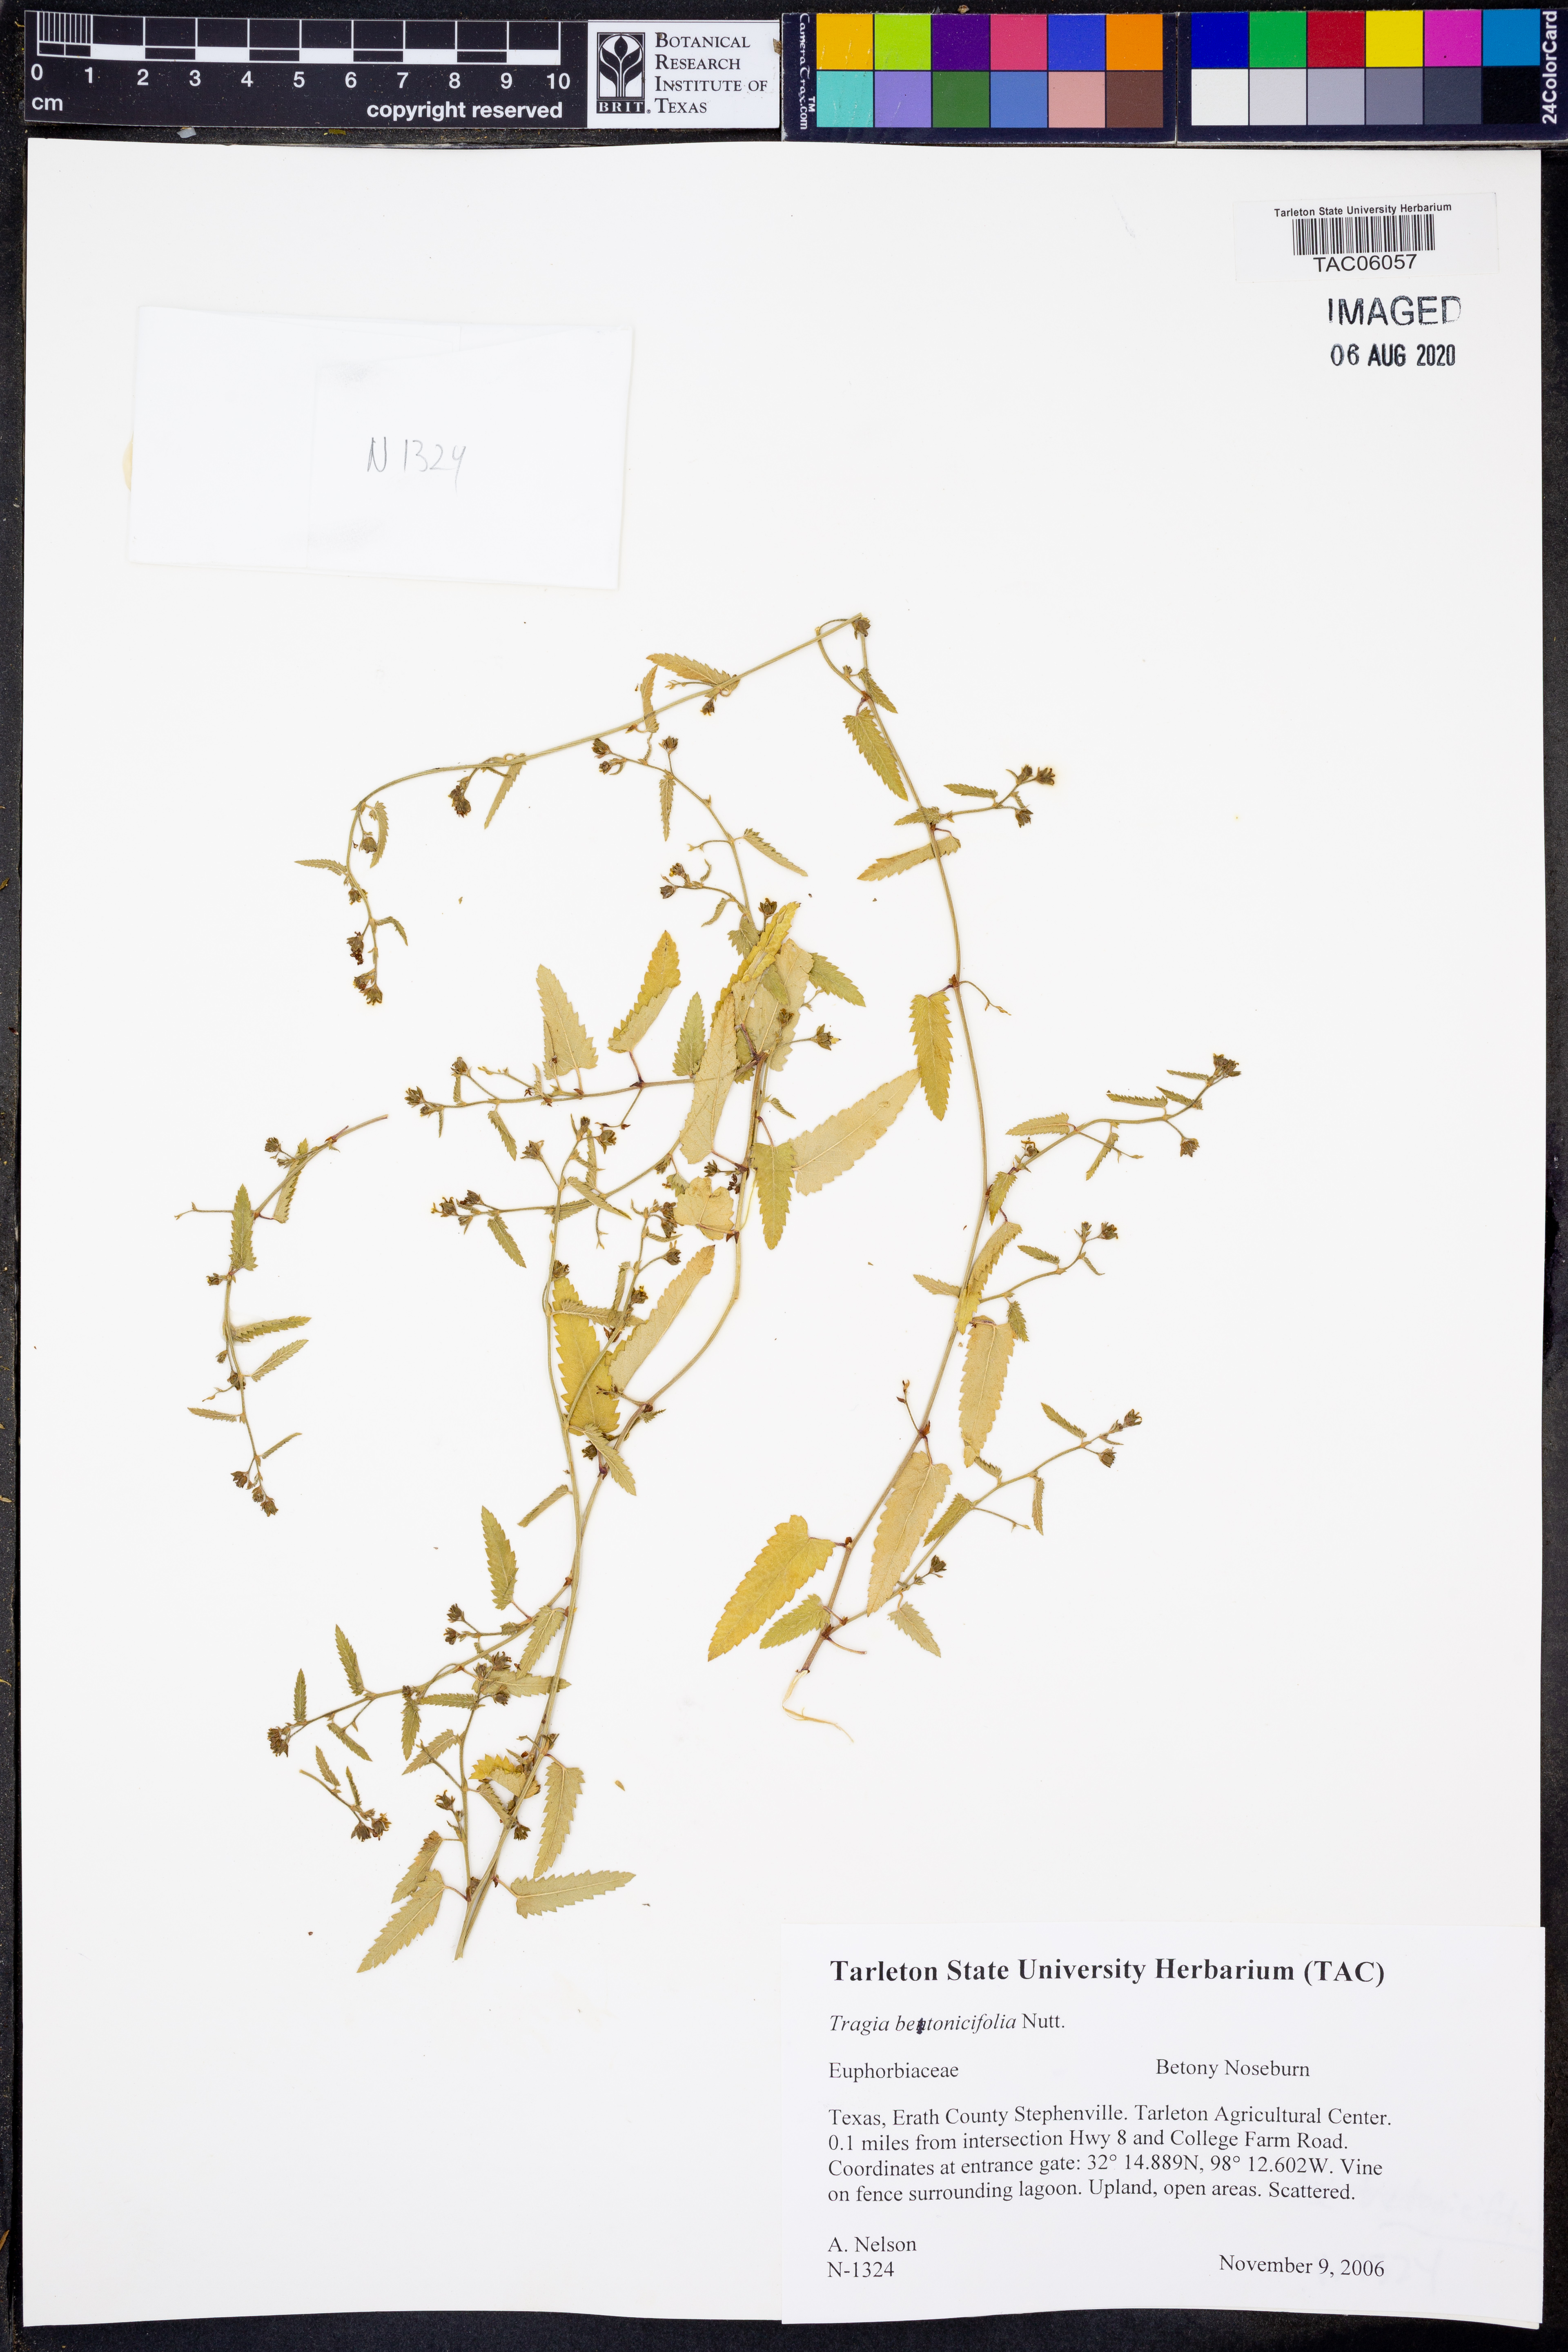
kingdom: Plantae
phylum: Tracheophyta
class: Magnoliopsida
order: Malpighiales
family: Euphorbiaceae
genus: Tragia
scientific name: Tragia betonicifolia
